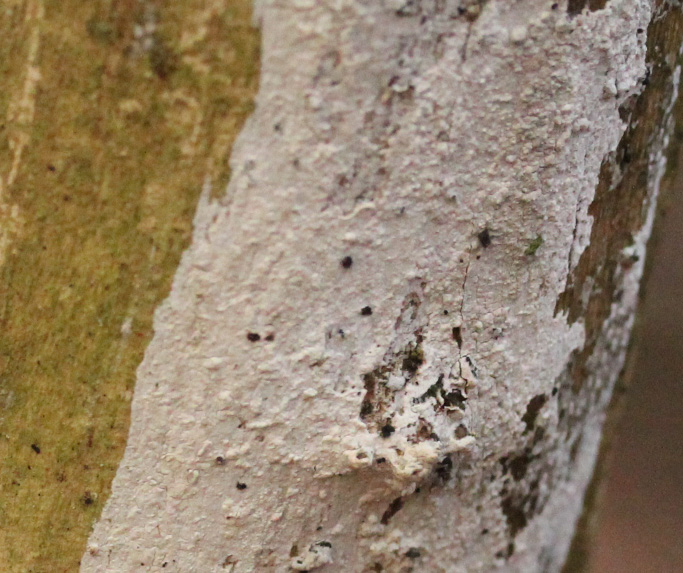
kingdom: Fungi
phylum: Basidiomycota
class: Agaricomycetes
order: Corticiales
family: Corticiaceae
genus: Lyomyces
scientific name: Lyomyces sambuci
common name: almindelig hyldehinde
